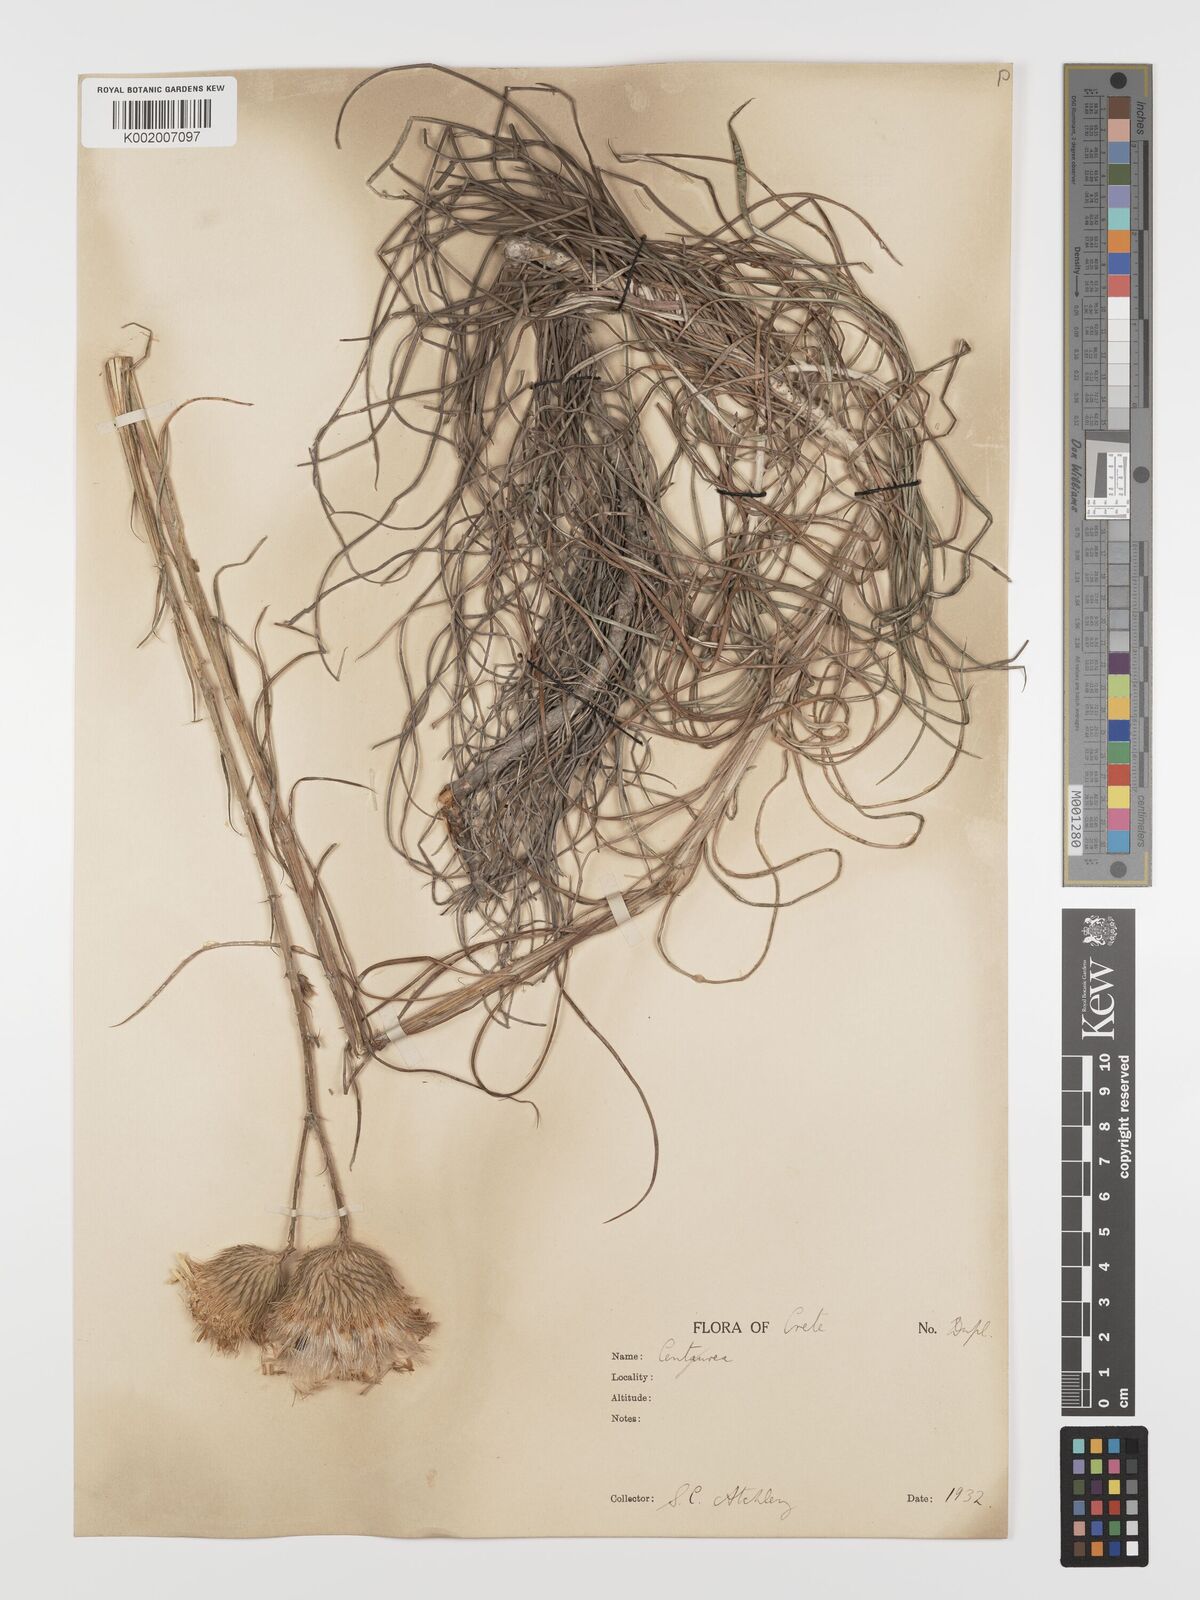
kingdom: Plantae
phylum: Tracheophyta
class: Magnoliopsida
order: Asterales
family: Asteraceae
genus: Ptilostemon
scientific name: Ptilostemon gnaphaloides
